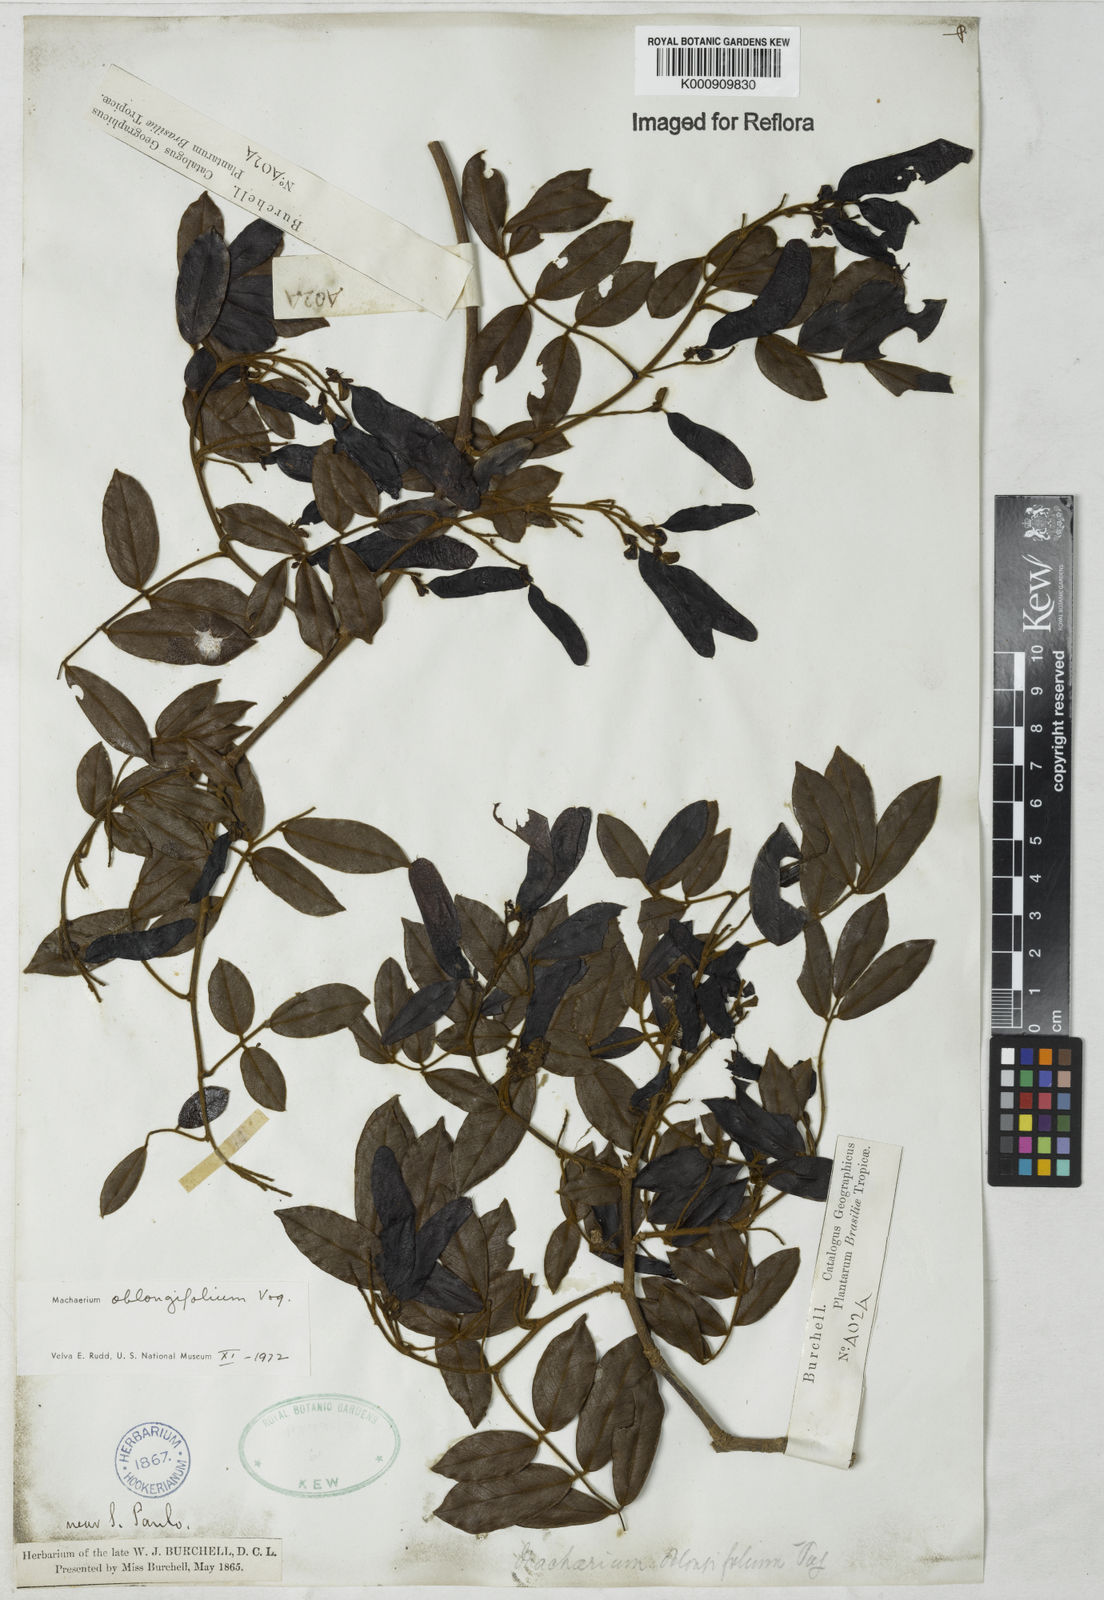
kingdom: Plantae
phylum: Tracheophyta
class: Magnoliopsida
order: Fabales
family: Fabaceae
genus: Machaerium
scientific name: Machaerium oblongifolium
